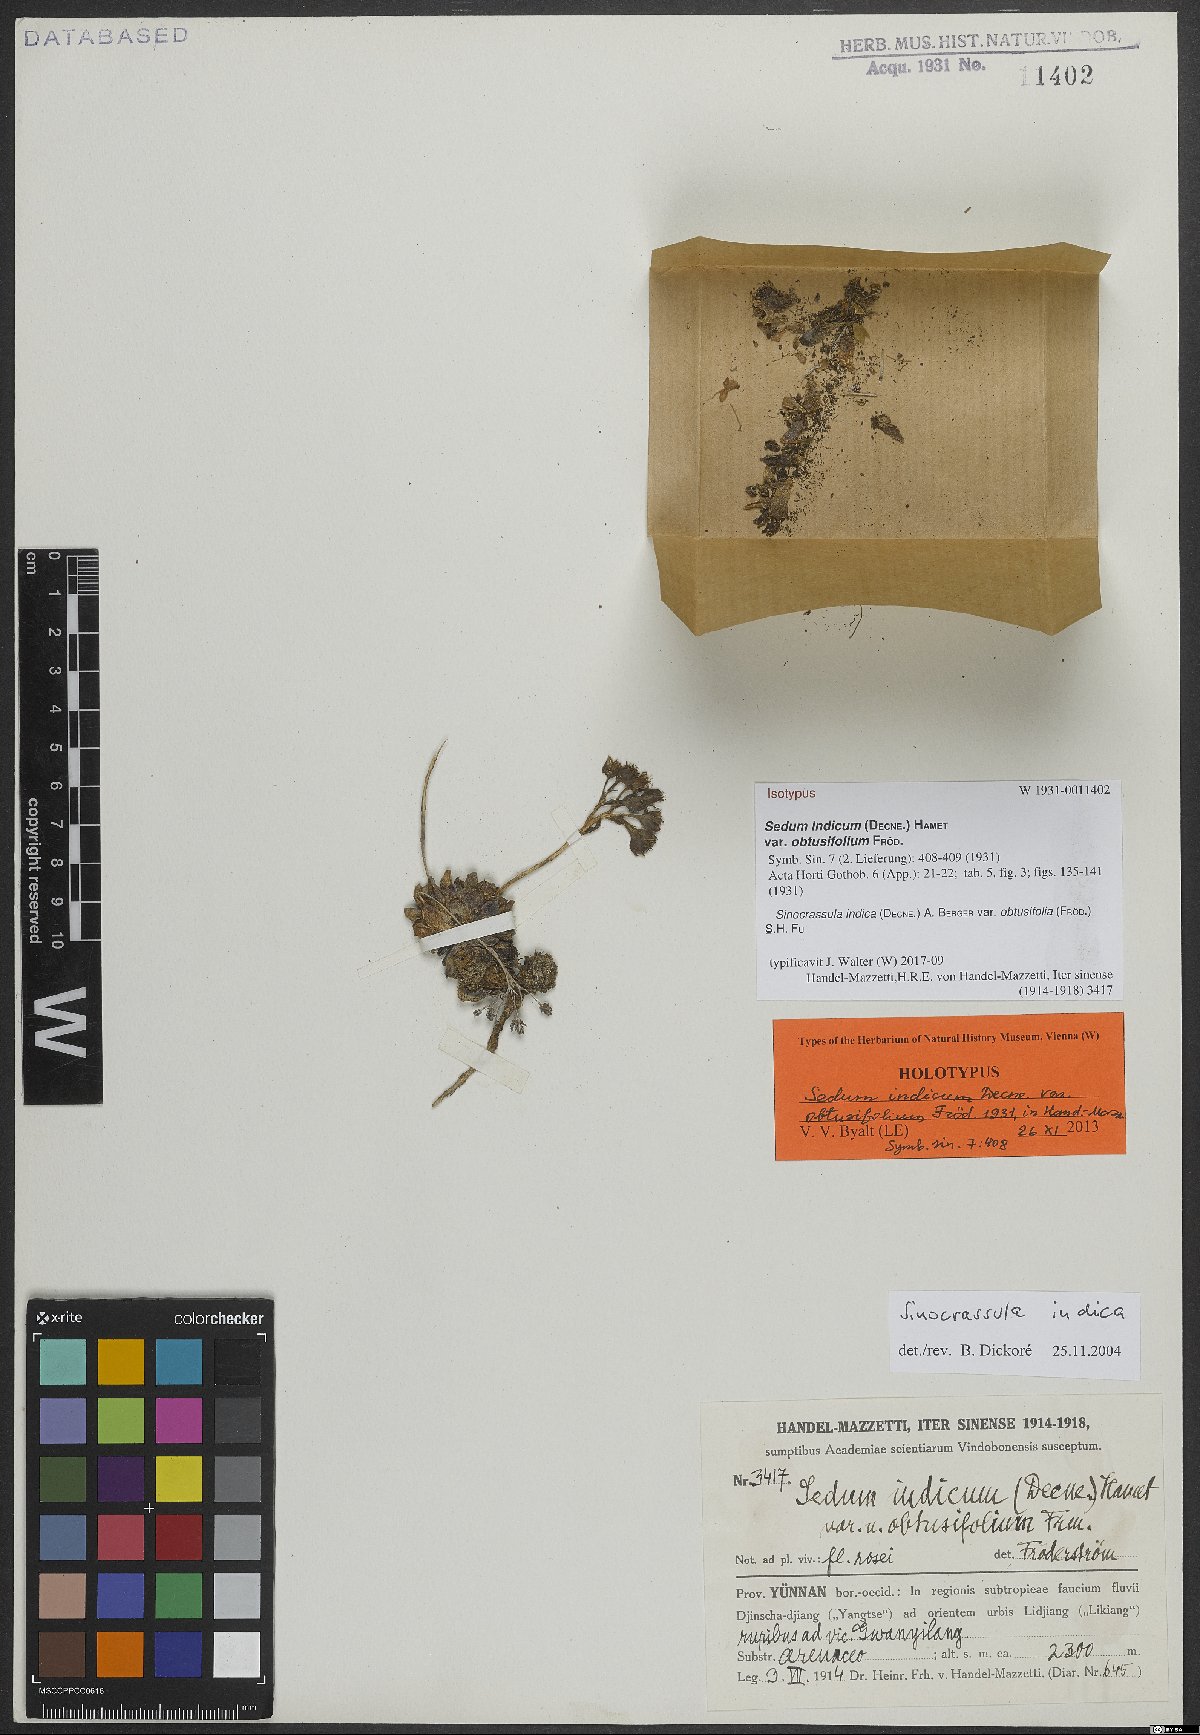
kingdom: Plantae
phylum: Tracheophyta
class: Magnoliopsida
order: Saxifragales
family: Crassulaceae
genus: Sinocrassula
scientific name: Sinocrassula indica
